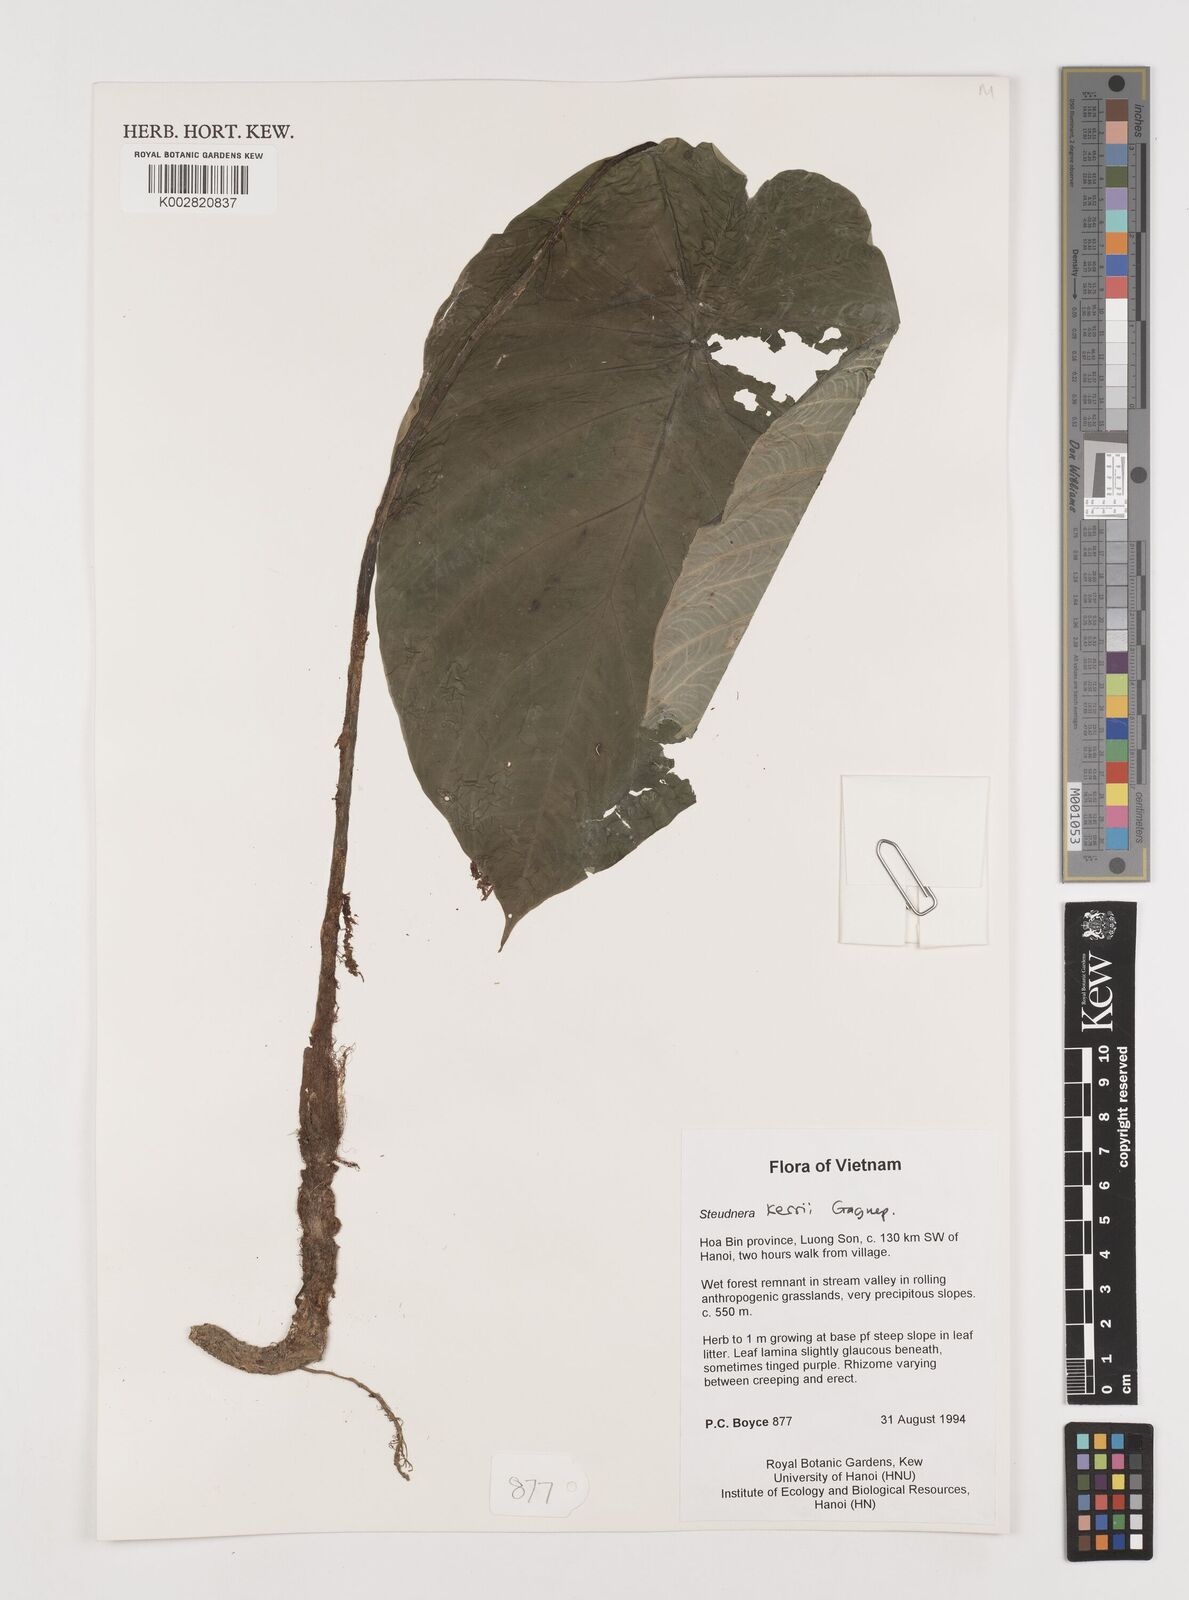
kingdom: Plantae
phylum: Tracheophyta
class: Liliopsida
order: Alismatales
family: Araceae
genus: Steudnera
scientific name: Steudnera kerrii
